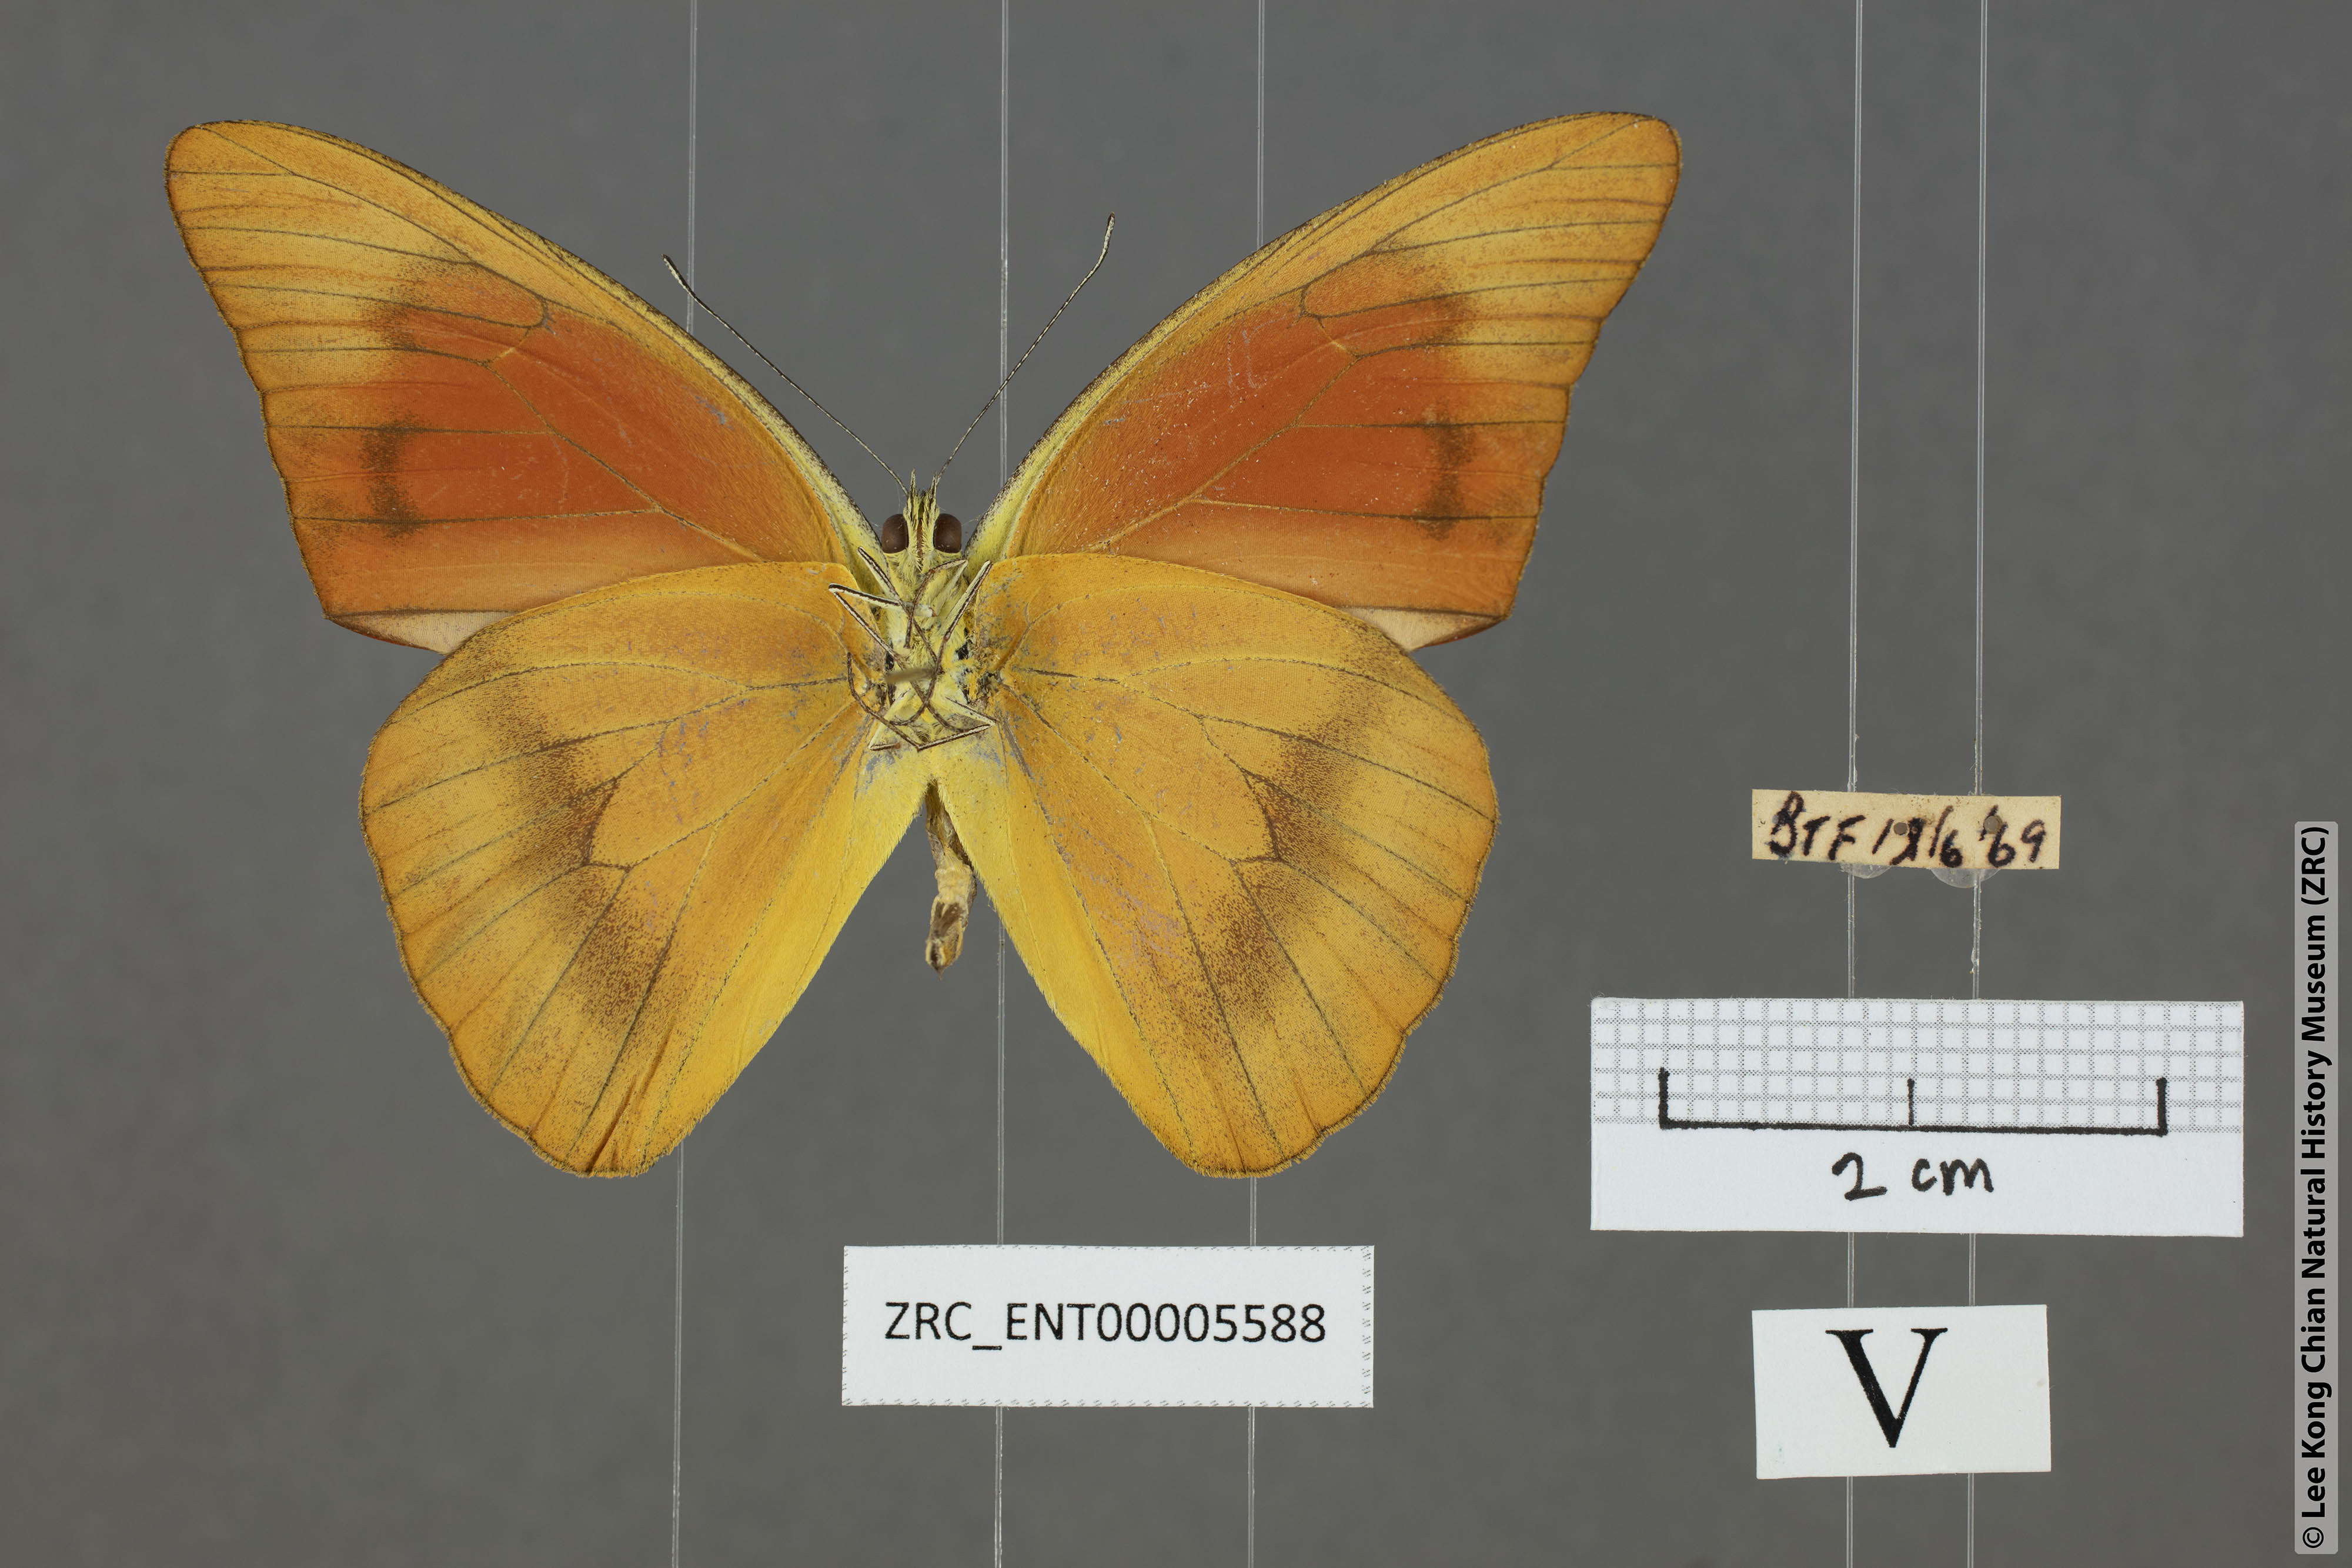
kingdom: Animalia
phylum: Arthropoda
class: Insecta
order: Lepidoptera
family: Pieridae
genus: Appias
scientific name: Appias nero
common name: Orange albatross
